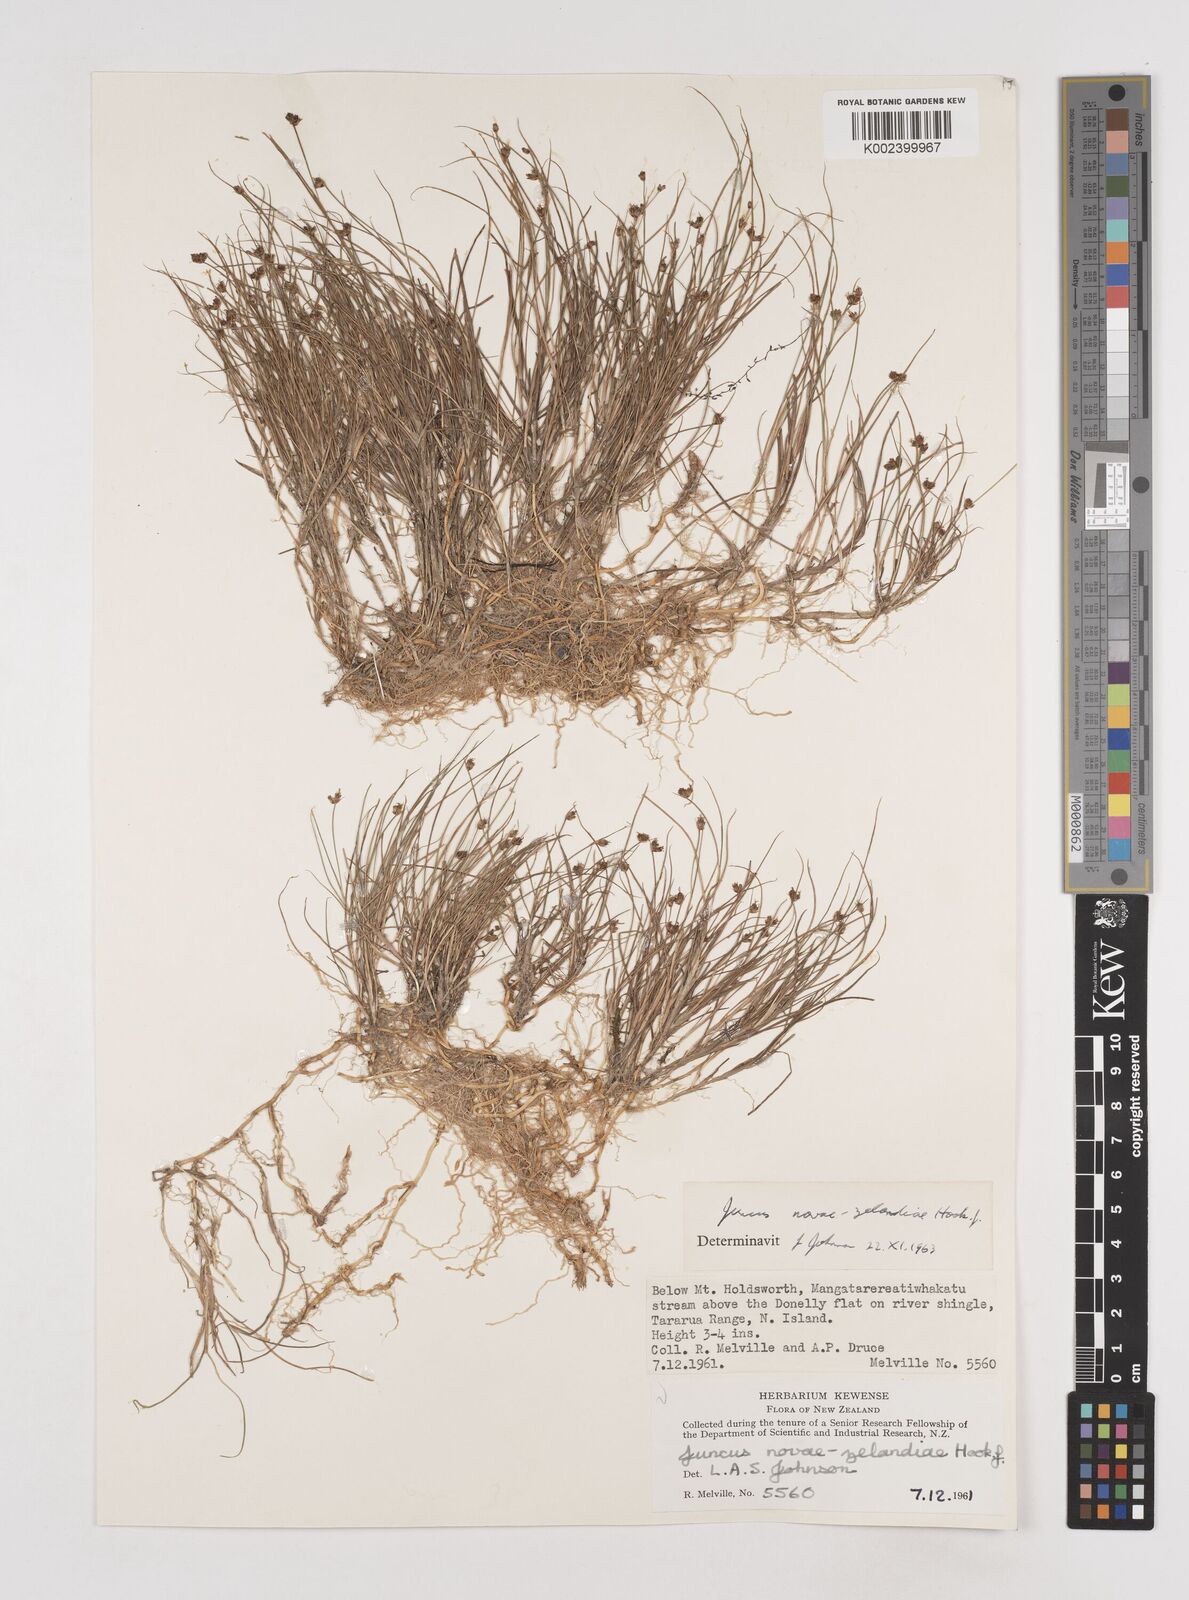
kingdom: Plantae
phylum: Tracheophyta
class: Liliopsida
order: Poales
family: Juncaceae
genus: Juncus
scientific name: Juncus novae-zelandiae
